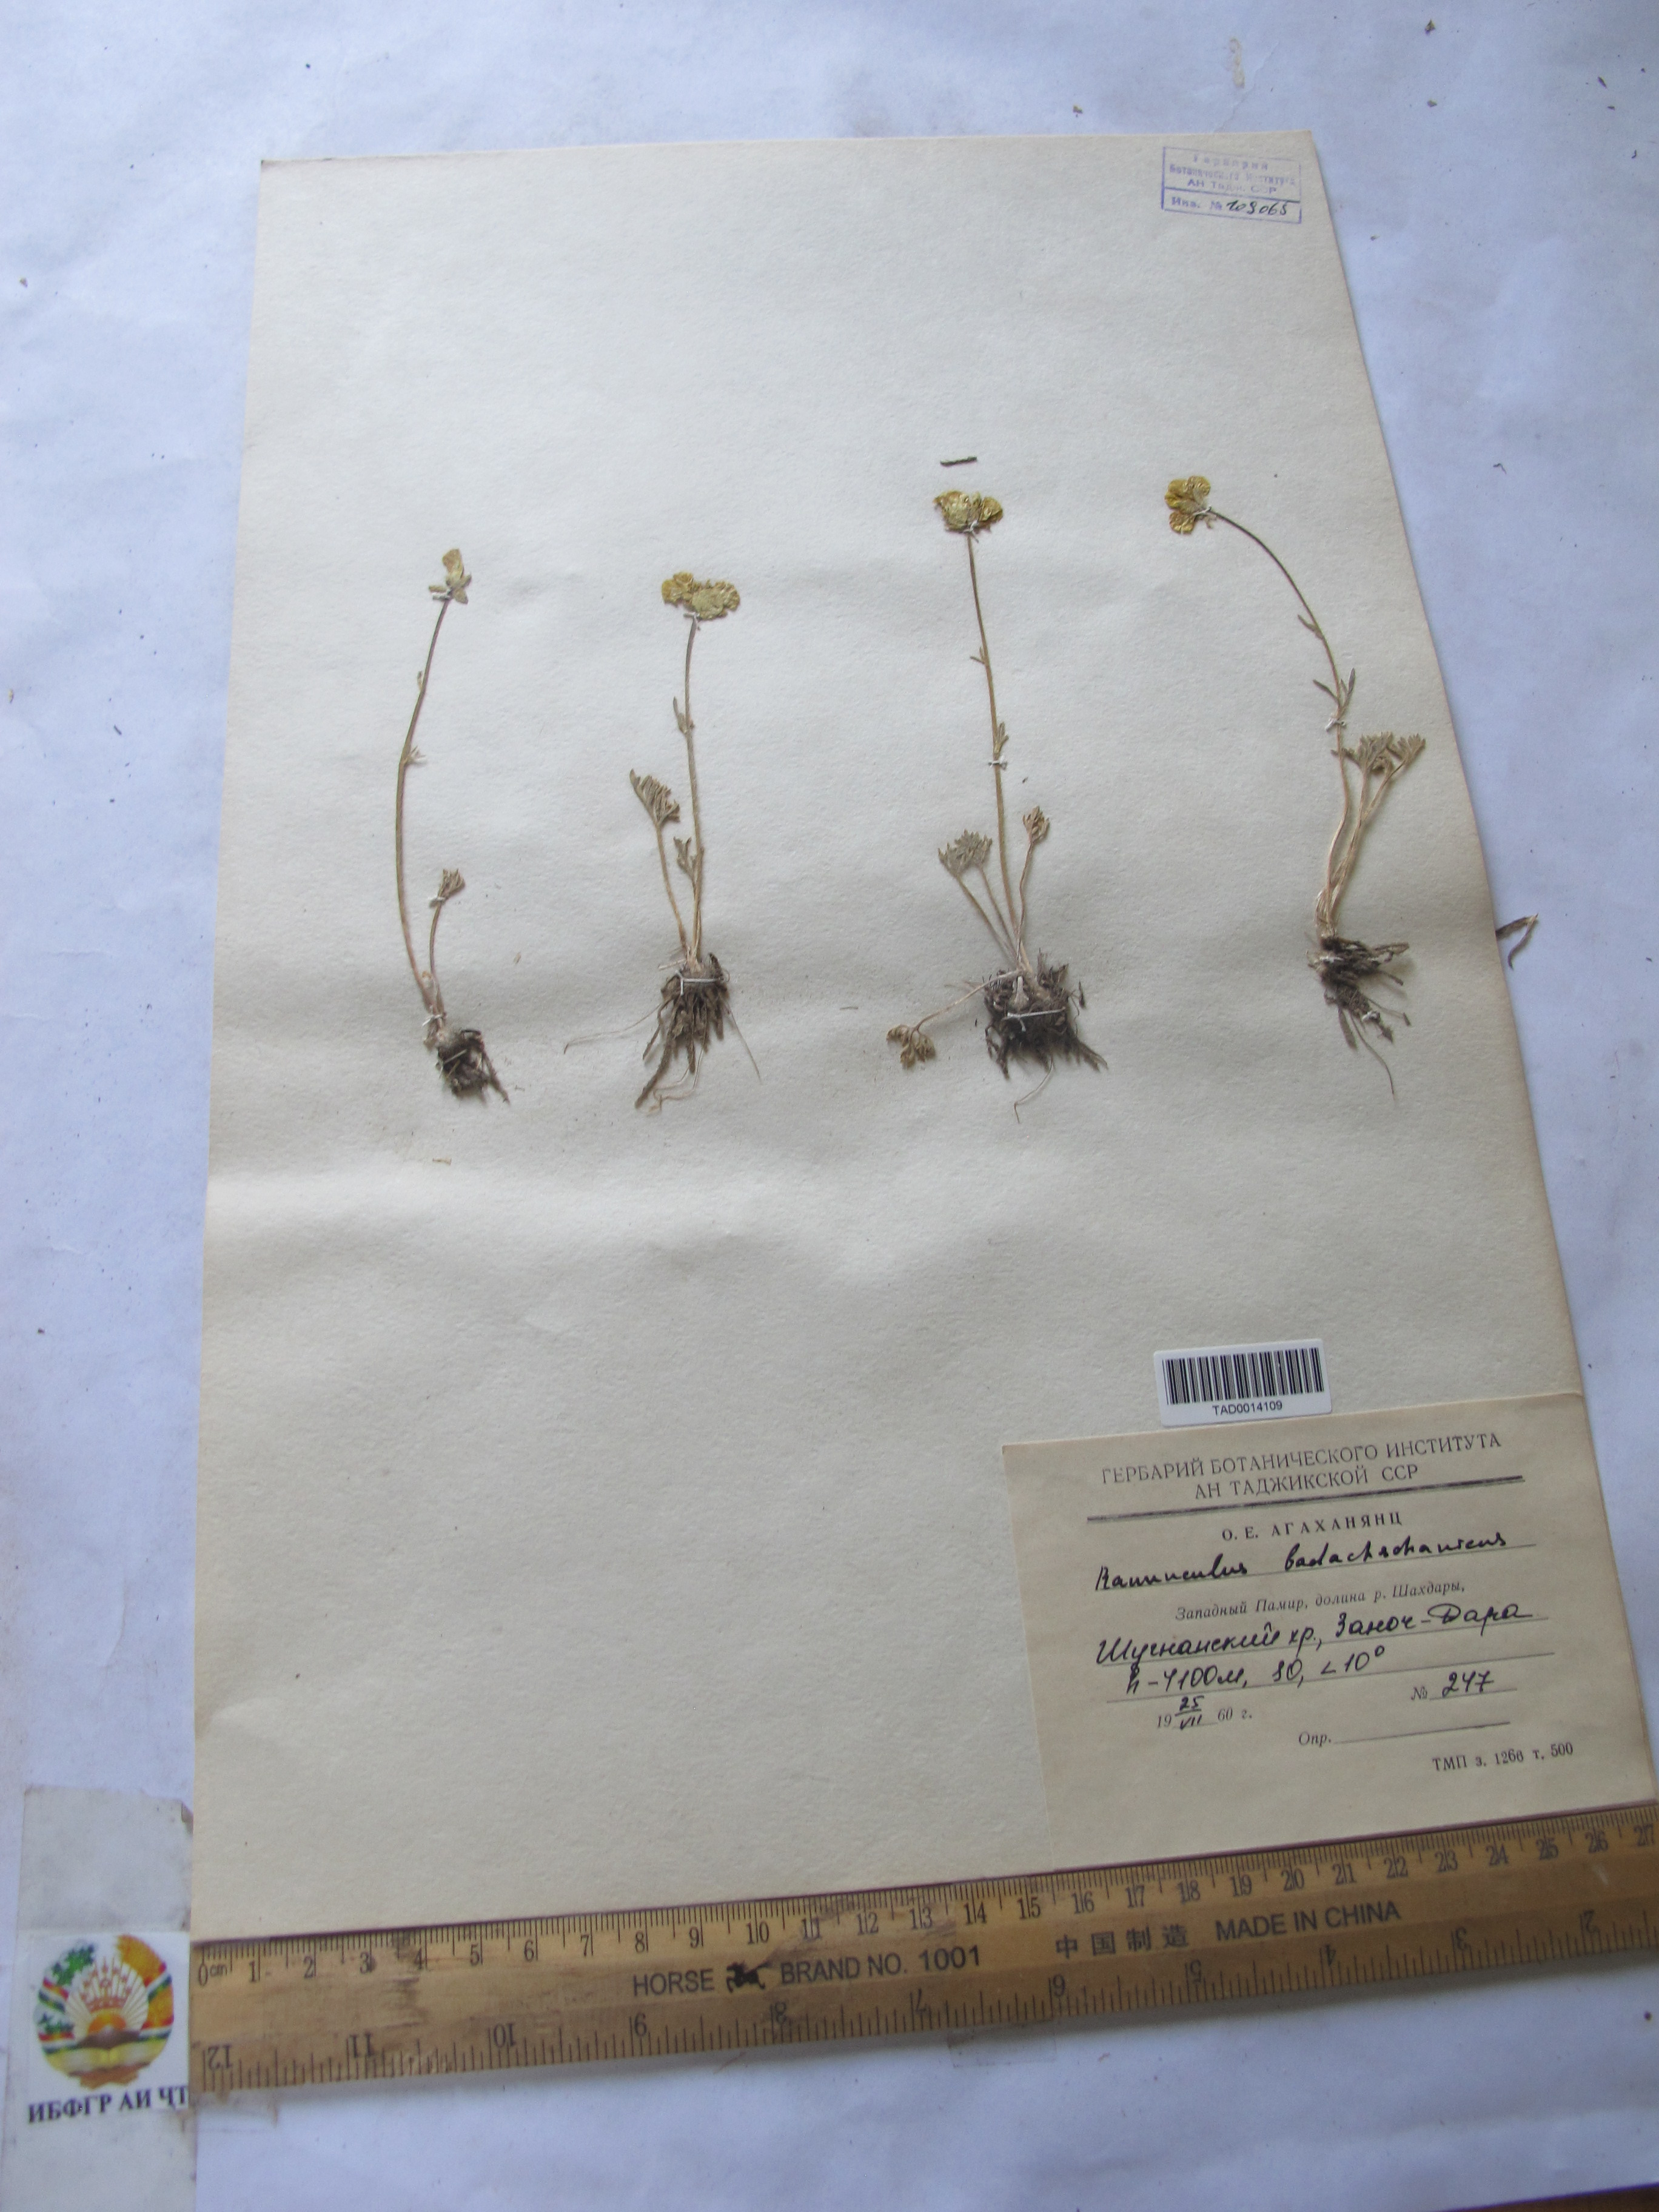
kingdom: Plantae
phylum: Tracheophyta
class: Magnoliopsida
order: Ranunculales
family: Ranunculaceae
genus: Ranunculus
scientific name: Ranunculus badachschanicus
